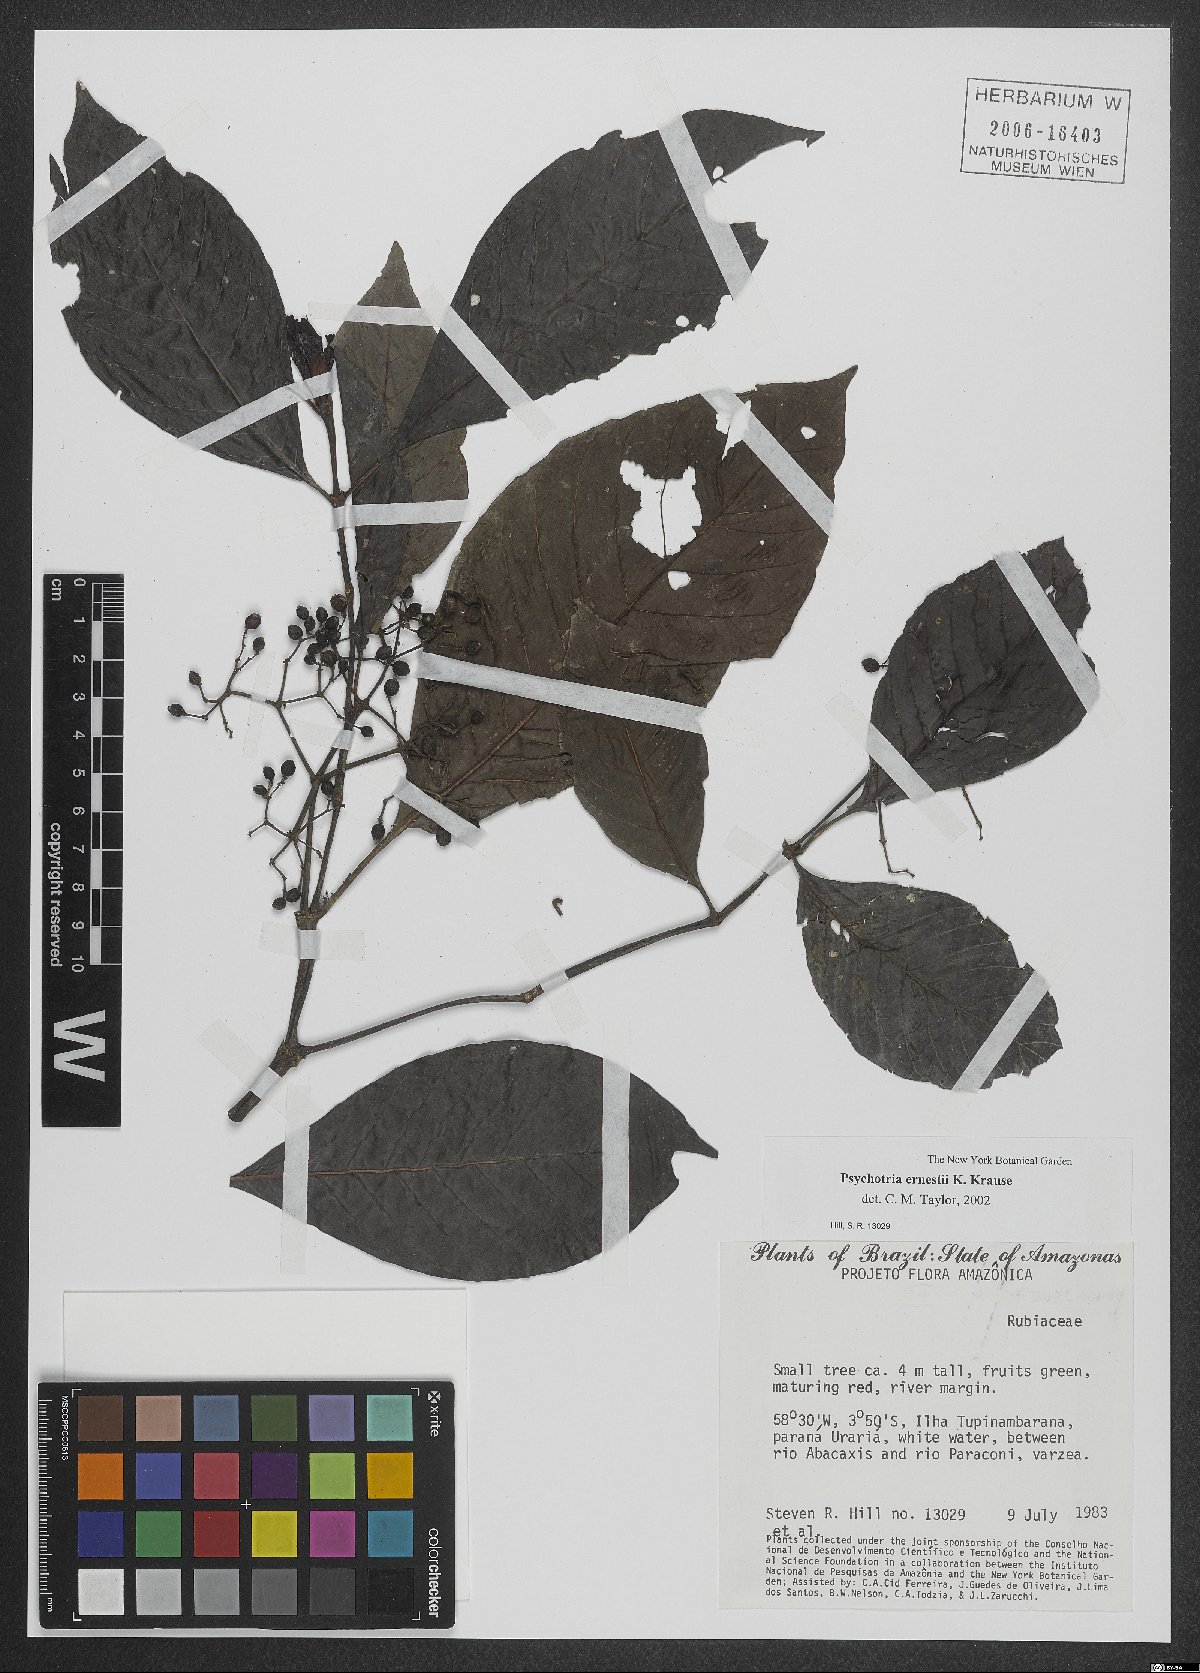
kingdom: Plantae
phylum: Tracheophyta
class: Magnoliopsida
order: Gentianales
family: Rubiaceae
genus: Psychotria
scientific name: Psychotria guianensis
